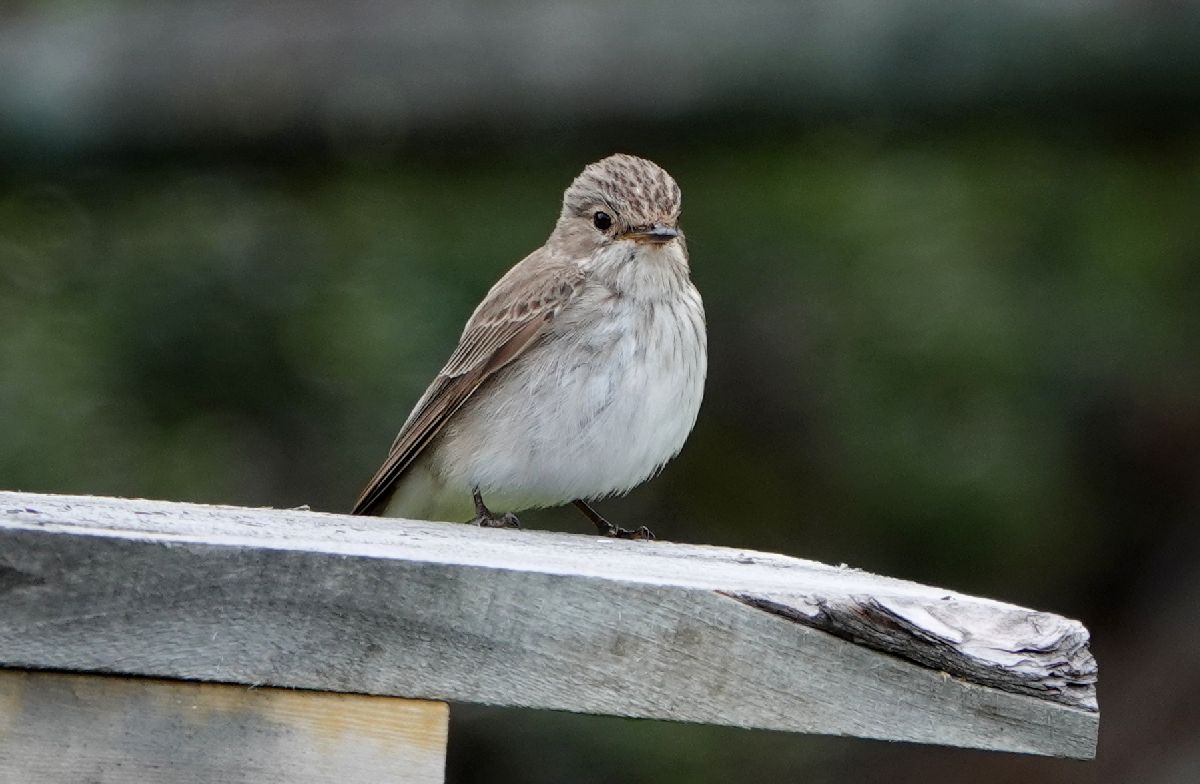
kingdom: Animalia
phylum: Chordata
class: Aves
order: Passeriformes
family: Muscicapidae
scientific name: Muscicapidae
